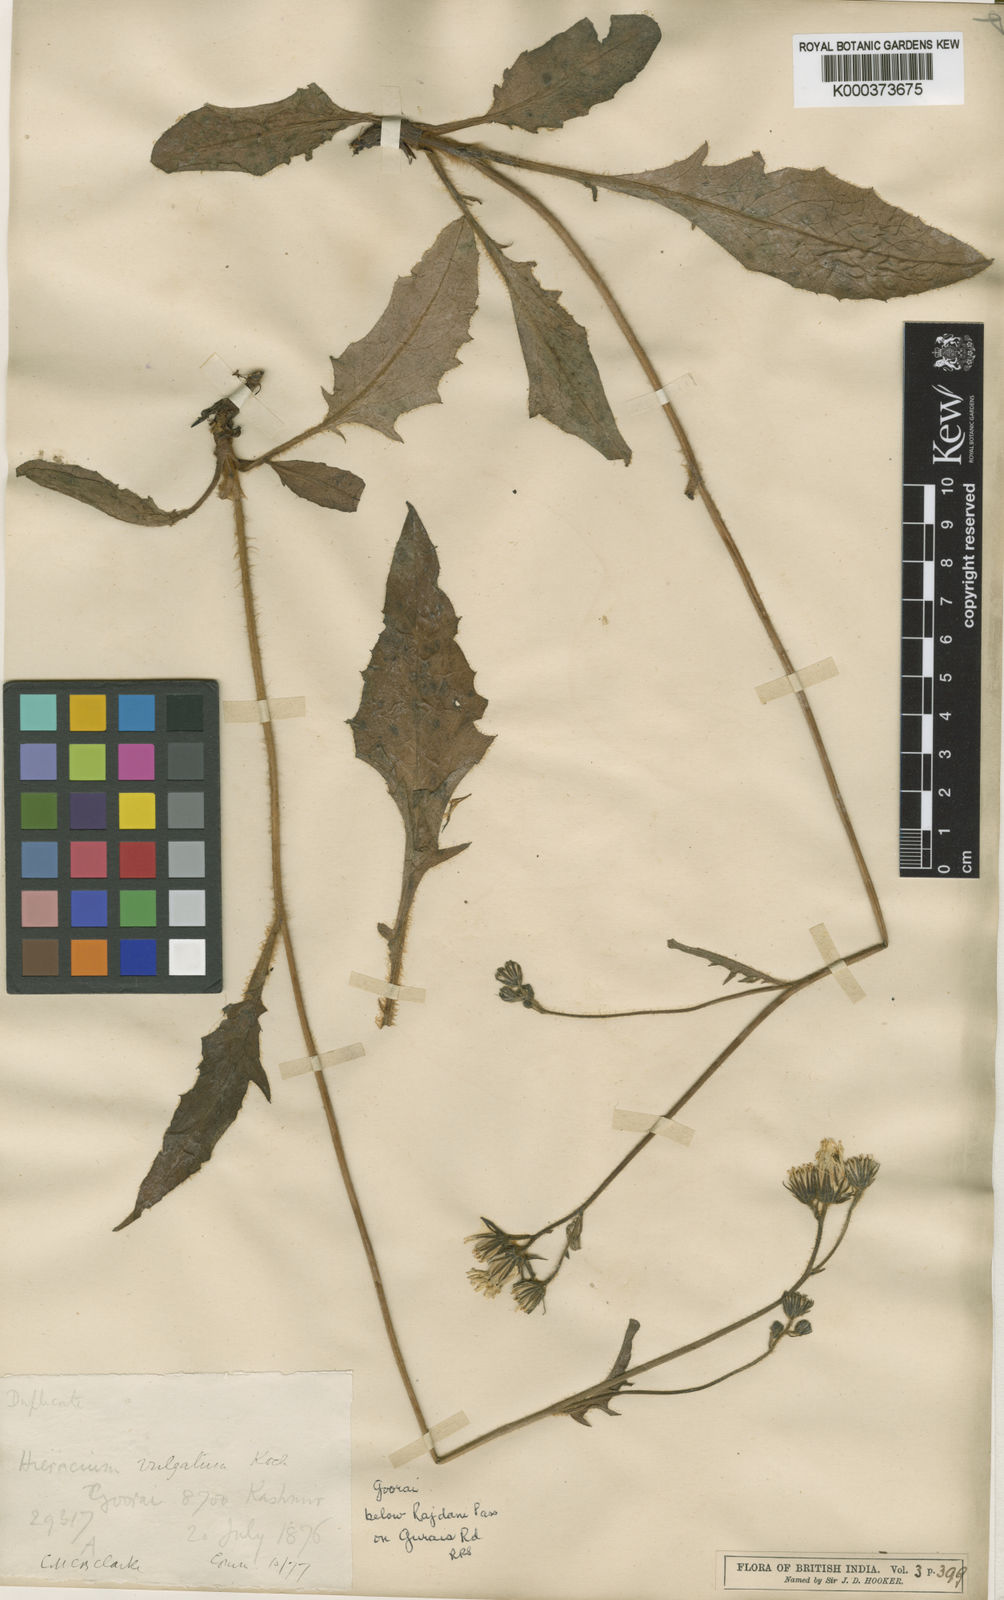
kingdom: Plantae
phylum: Tracheophyta
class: Magnoliopsida
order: Asterales
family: Asteraceae
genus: Hieracium
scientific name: Hieracium lachenalii
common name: Common hawkweed
